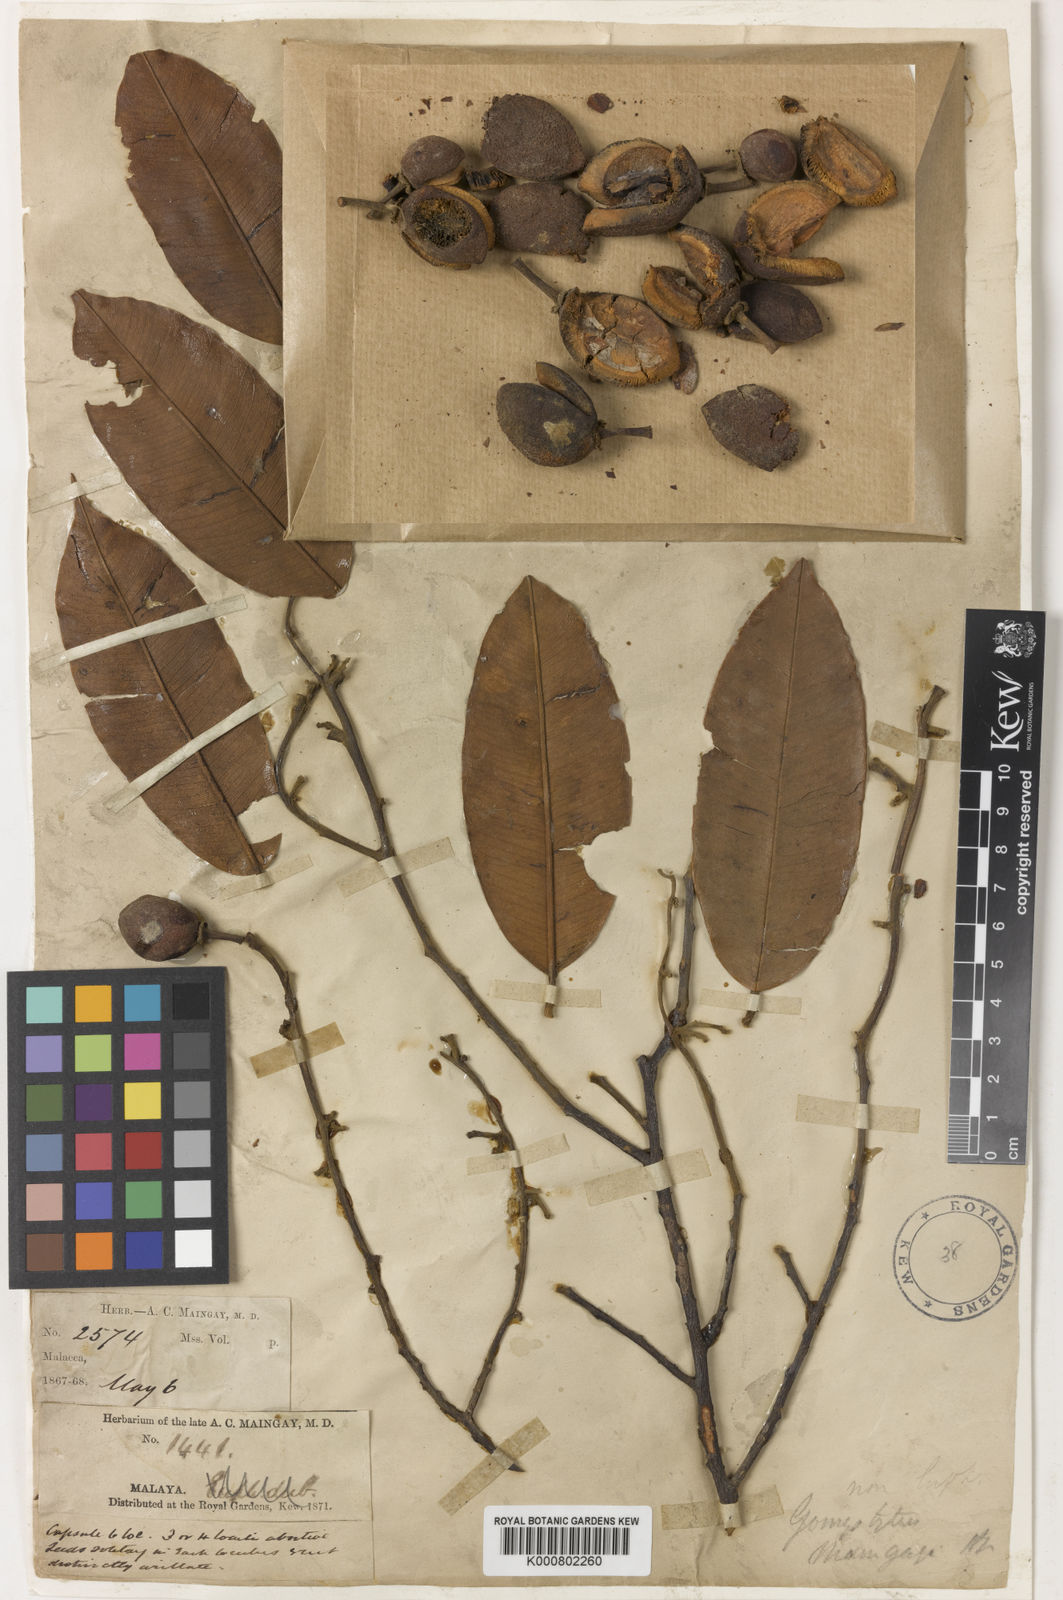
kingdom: Plantae
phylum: Tracheophyta
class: Magnoliopsida
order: Malvales
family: Thymelaeaceae
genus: Gonystylus
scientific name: Gonystylus maingayi
